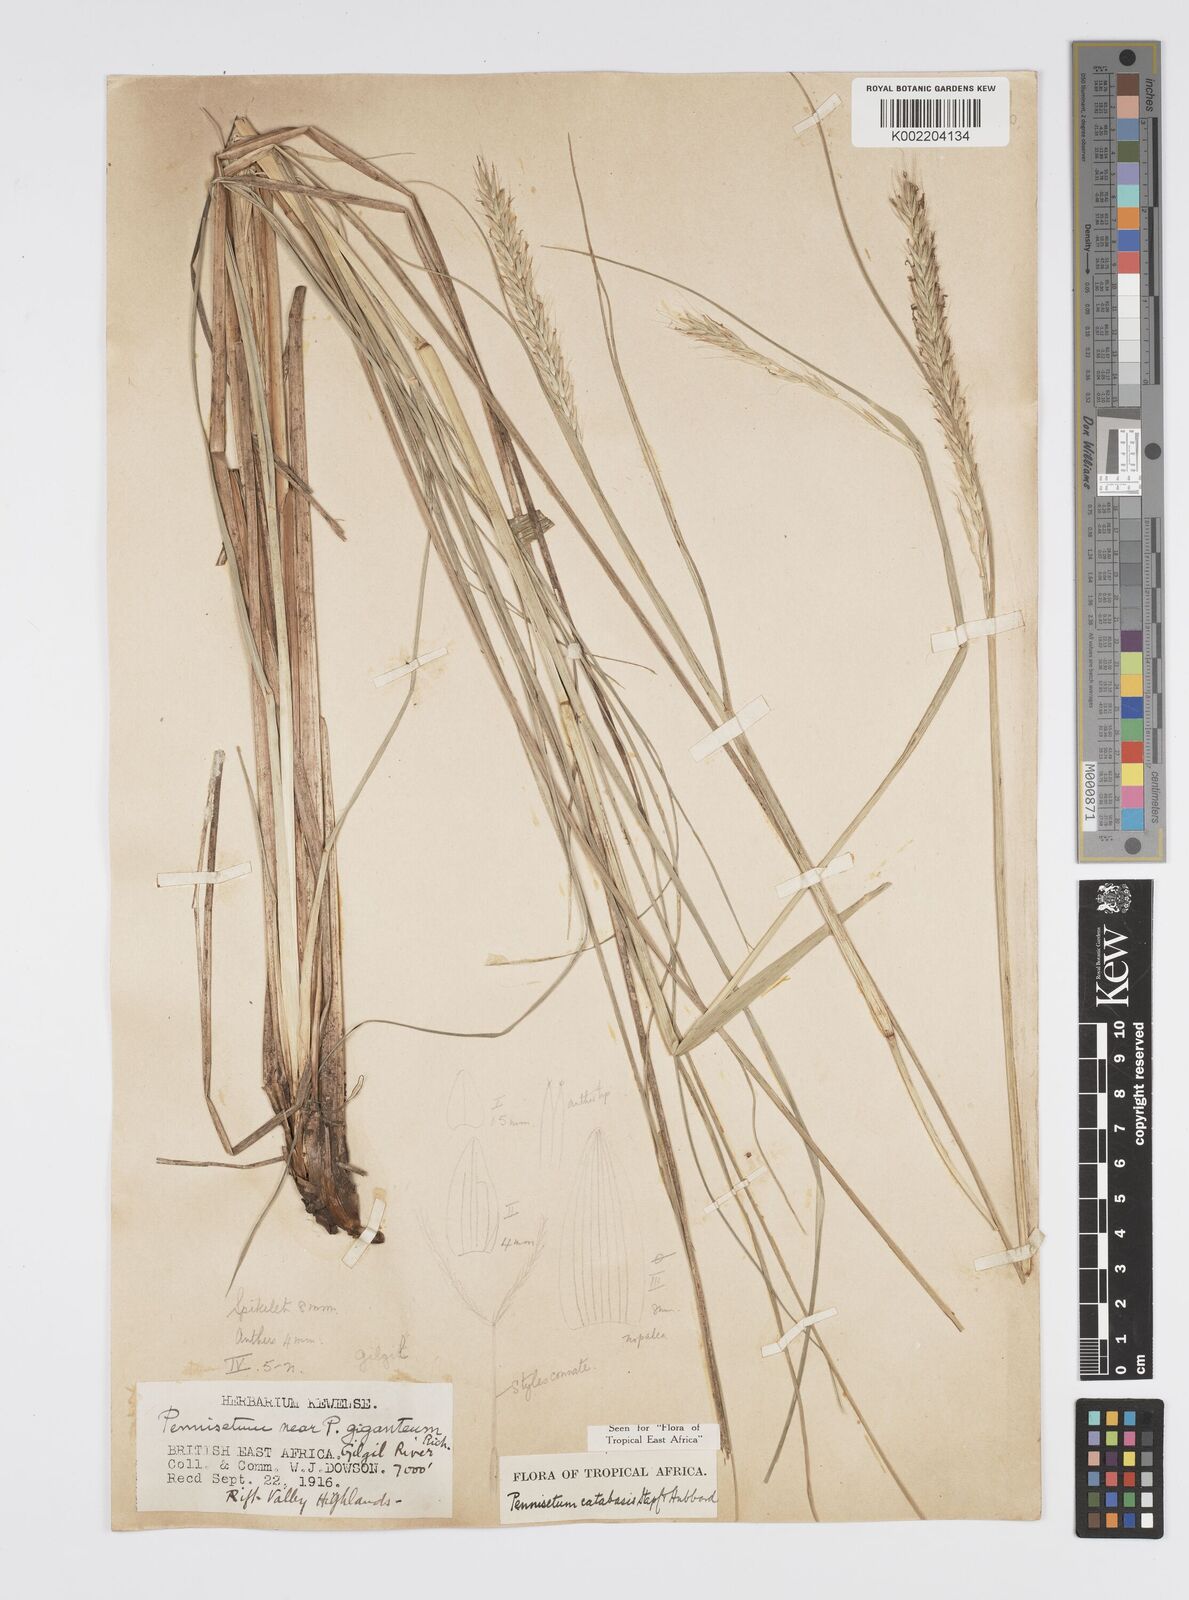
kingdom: Plantae
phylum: Tracheophyta
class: Liliopsida
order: Poales
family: Poaceae
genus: Cenchrus
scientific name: Cenchrus Pennisetum spec
